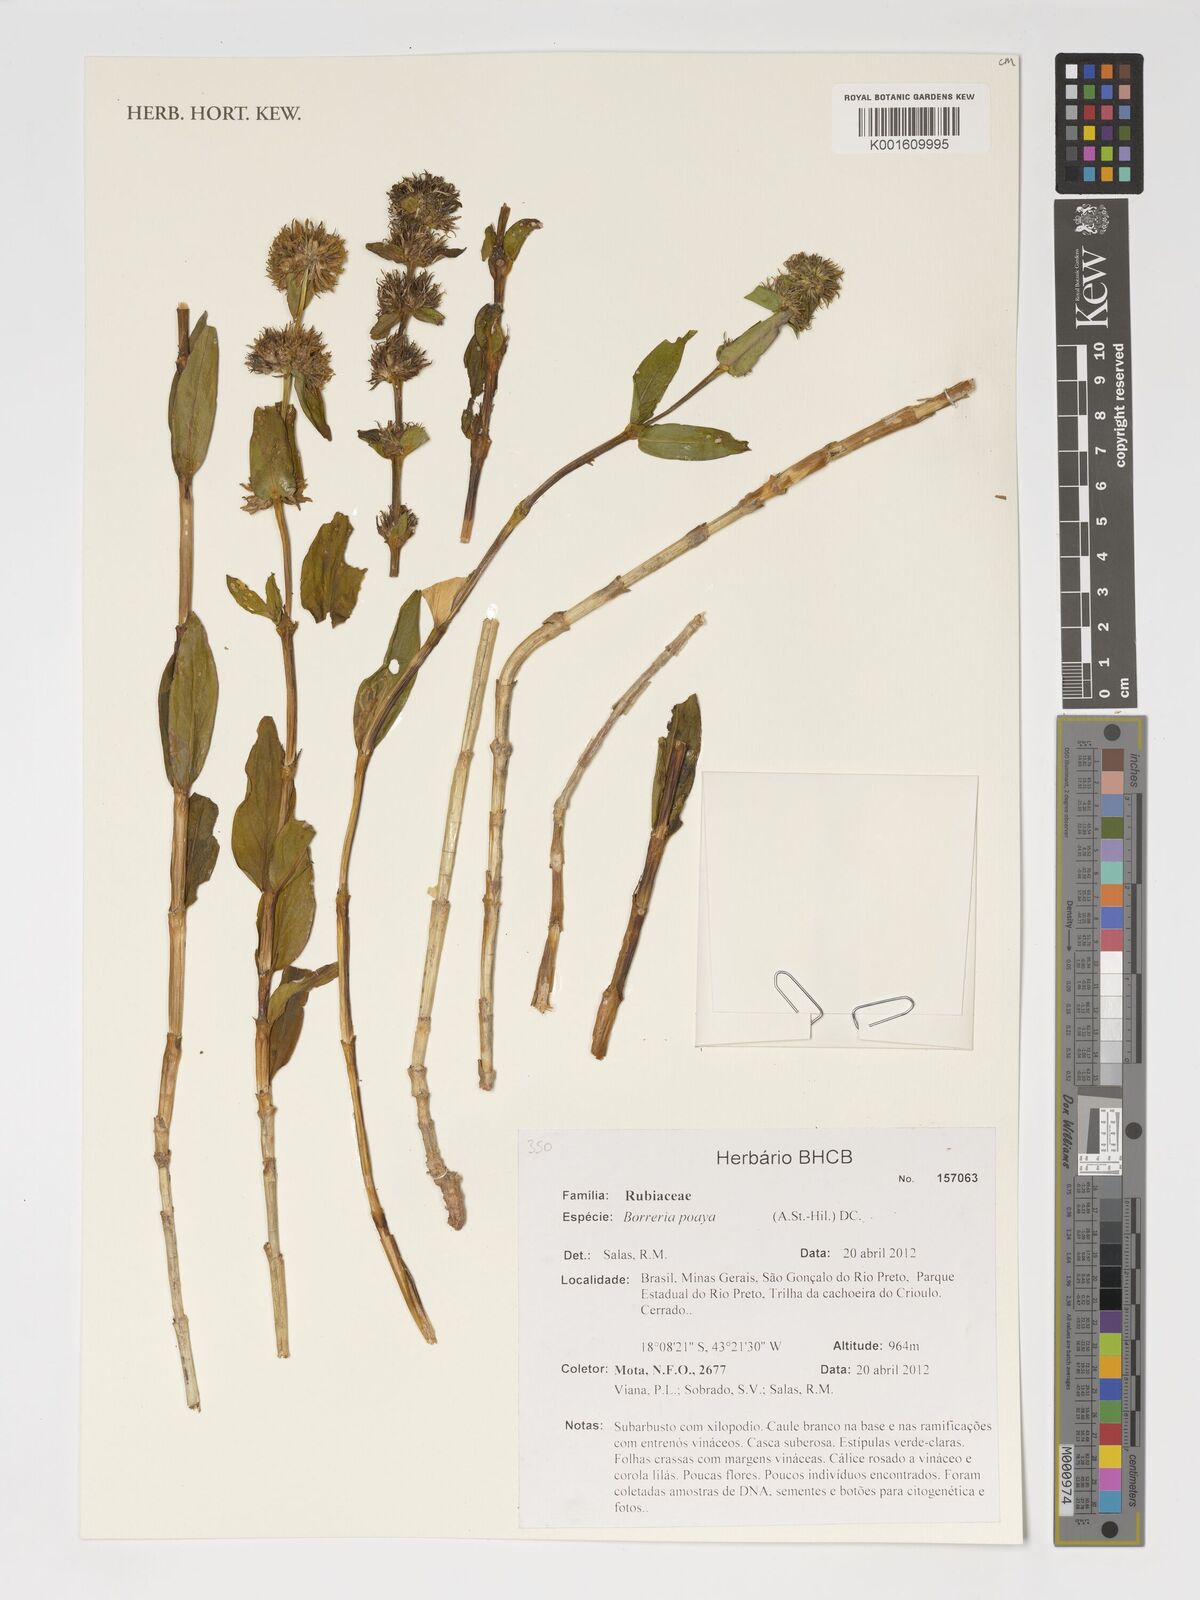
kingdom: Plantae
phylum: Tracheophyta
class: Magnoliopsida
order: Gentianales
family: Rubiaceae
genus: Spermacoce
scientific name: Spermacoce poaya
